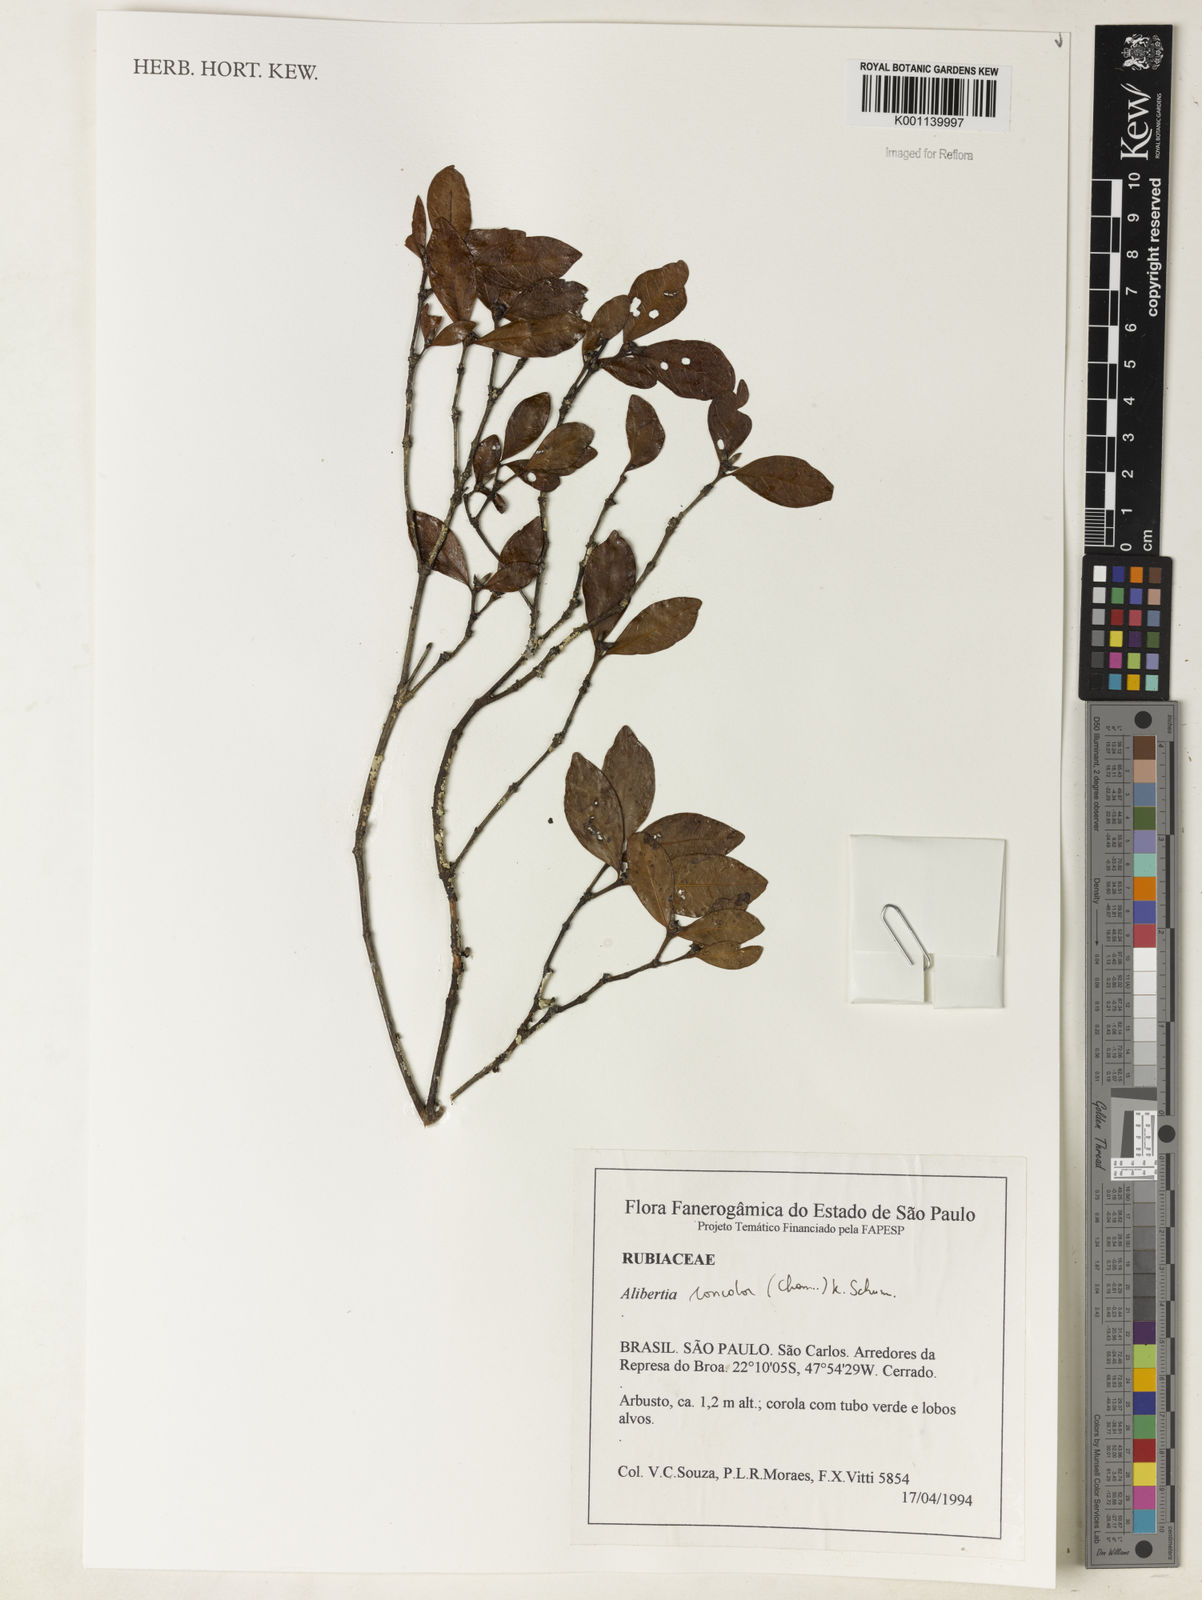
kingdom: Plantae
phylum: Tracheophyta
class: Magnoliopsida
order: Gentianales
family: Rubiaceae
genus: Cordiera
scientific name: Cordiera concolor
